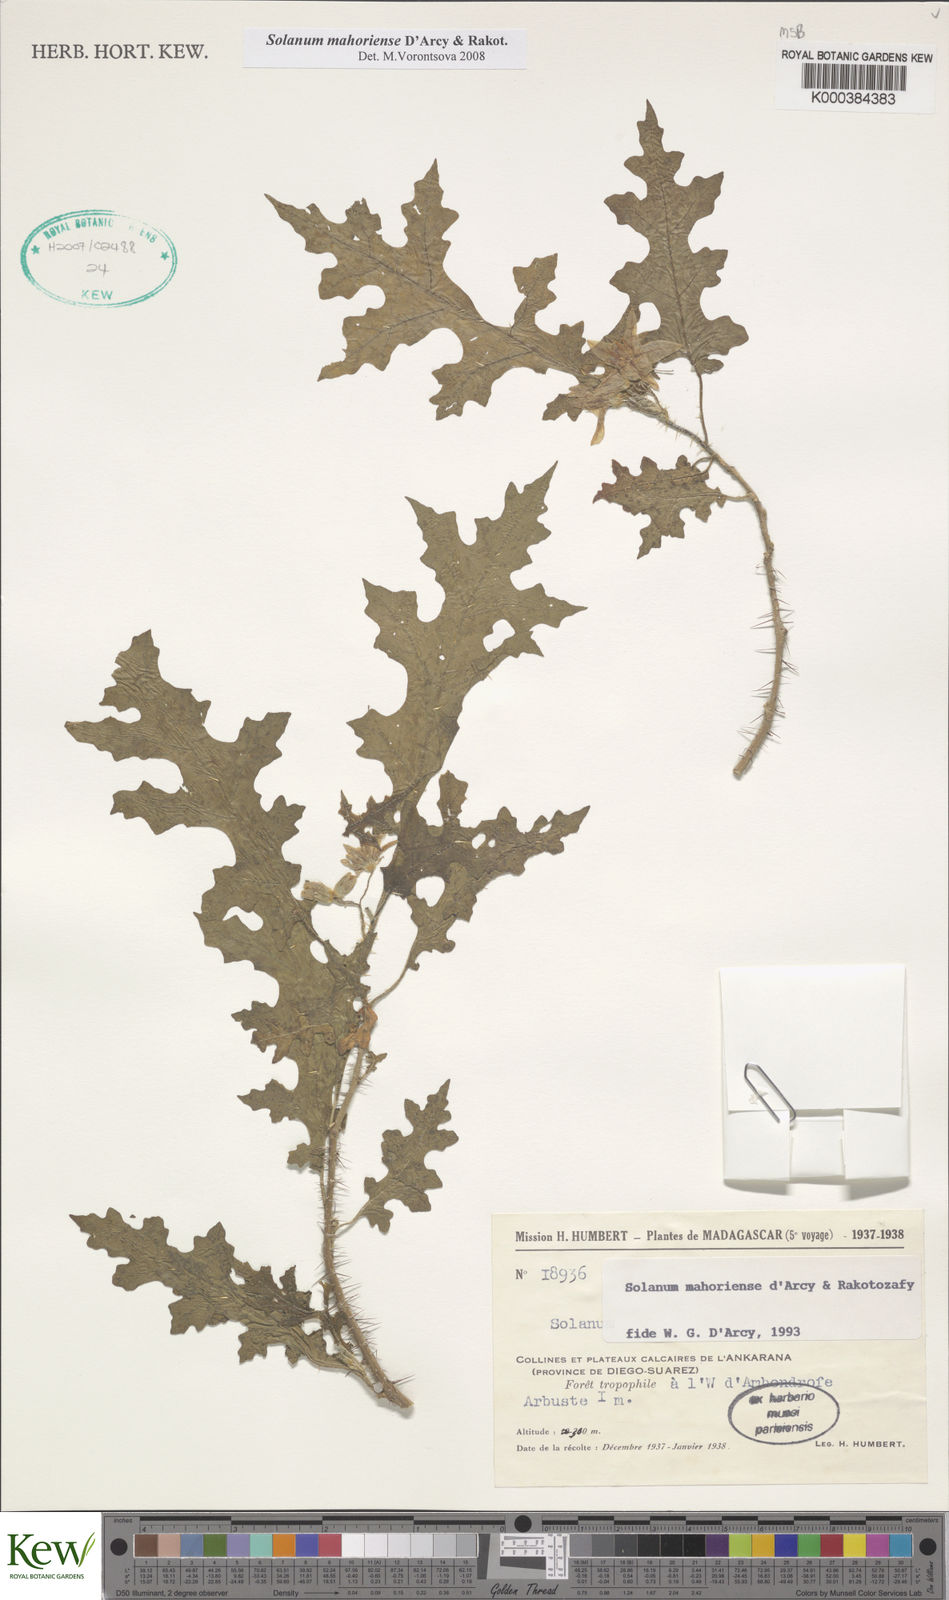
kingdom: Plantae
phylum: Tracheophyta
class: Magnoliopsida
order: Solanales
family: Solanaceae
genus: Solanum
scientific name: Solanum mahoriense
